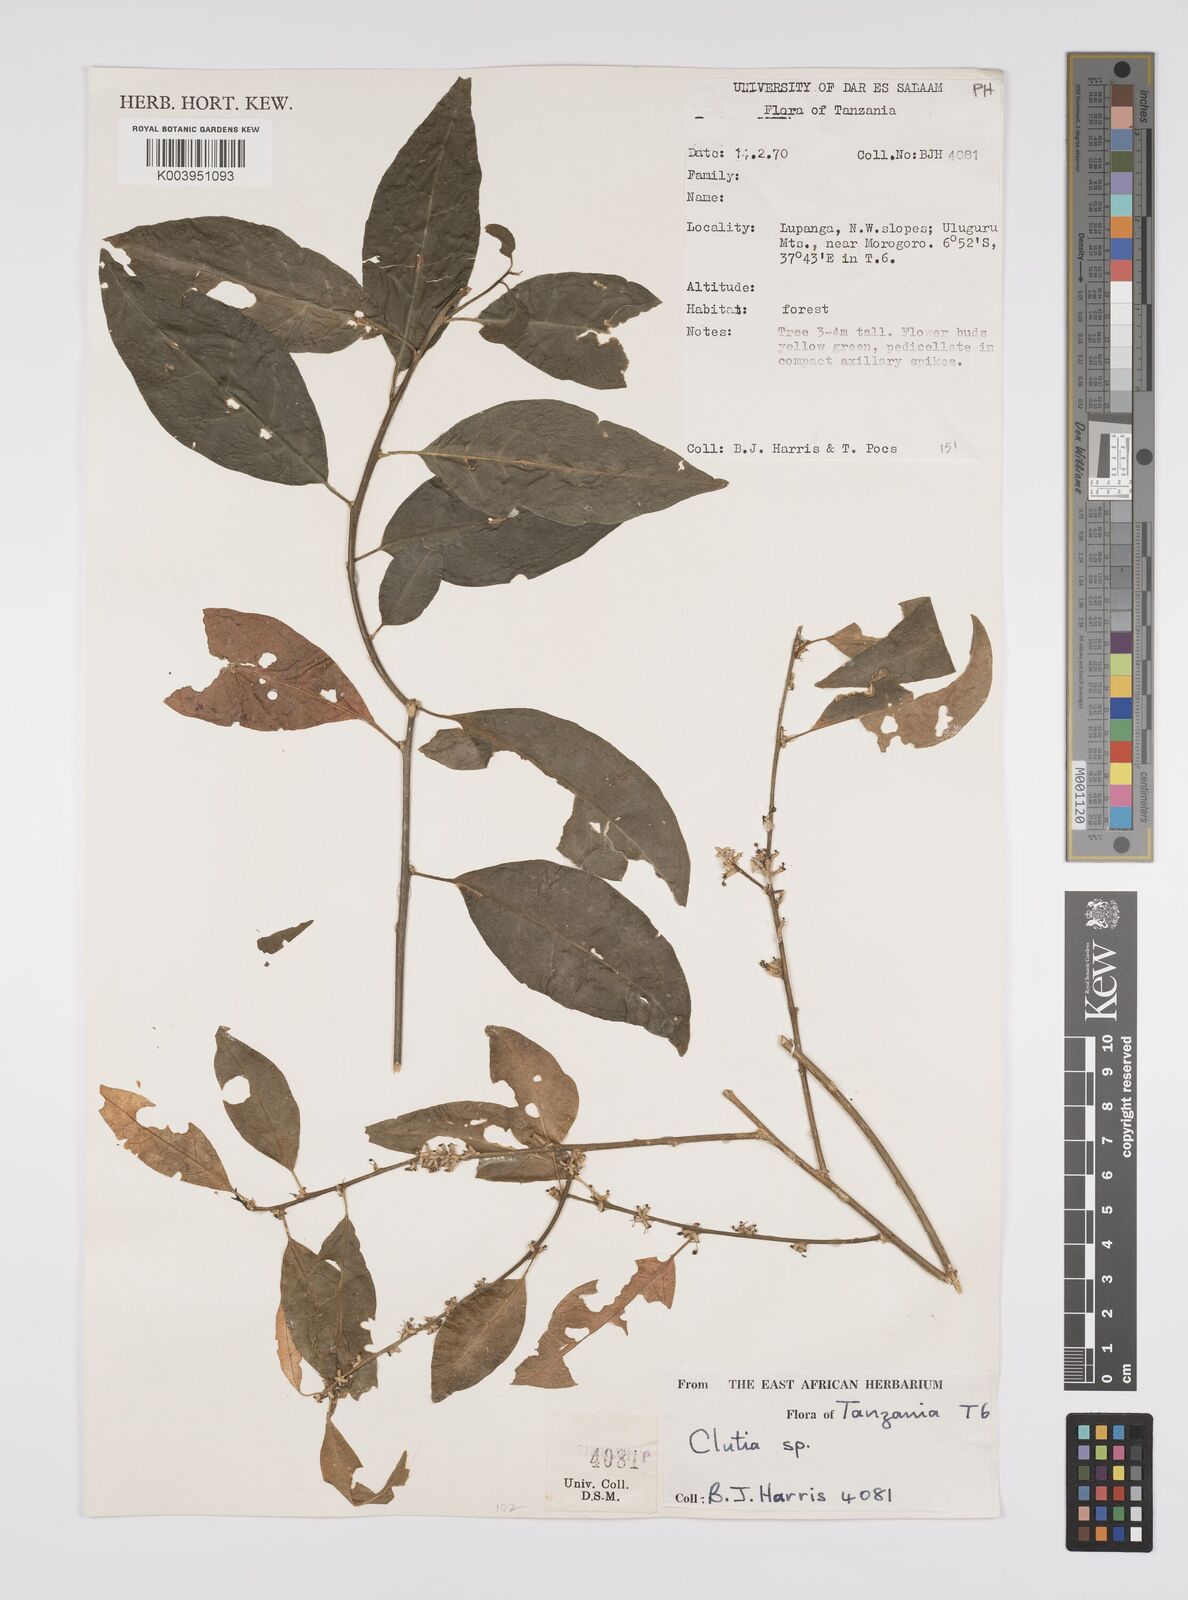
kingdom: Plantae
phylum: Tracheophyta
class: Magnoliopsida
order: Malpighiales
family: Peraceae
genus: Clutia
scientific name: Clutia
